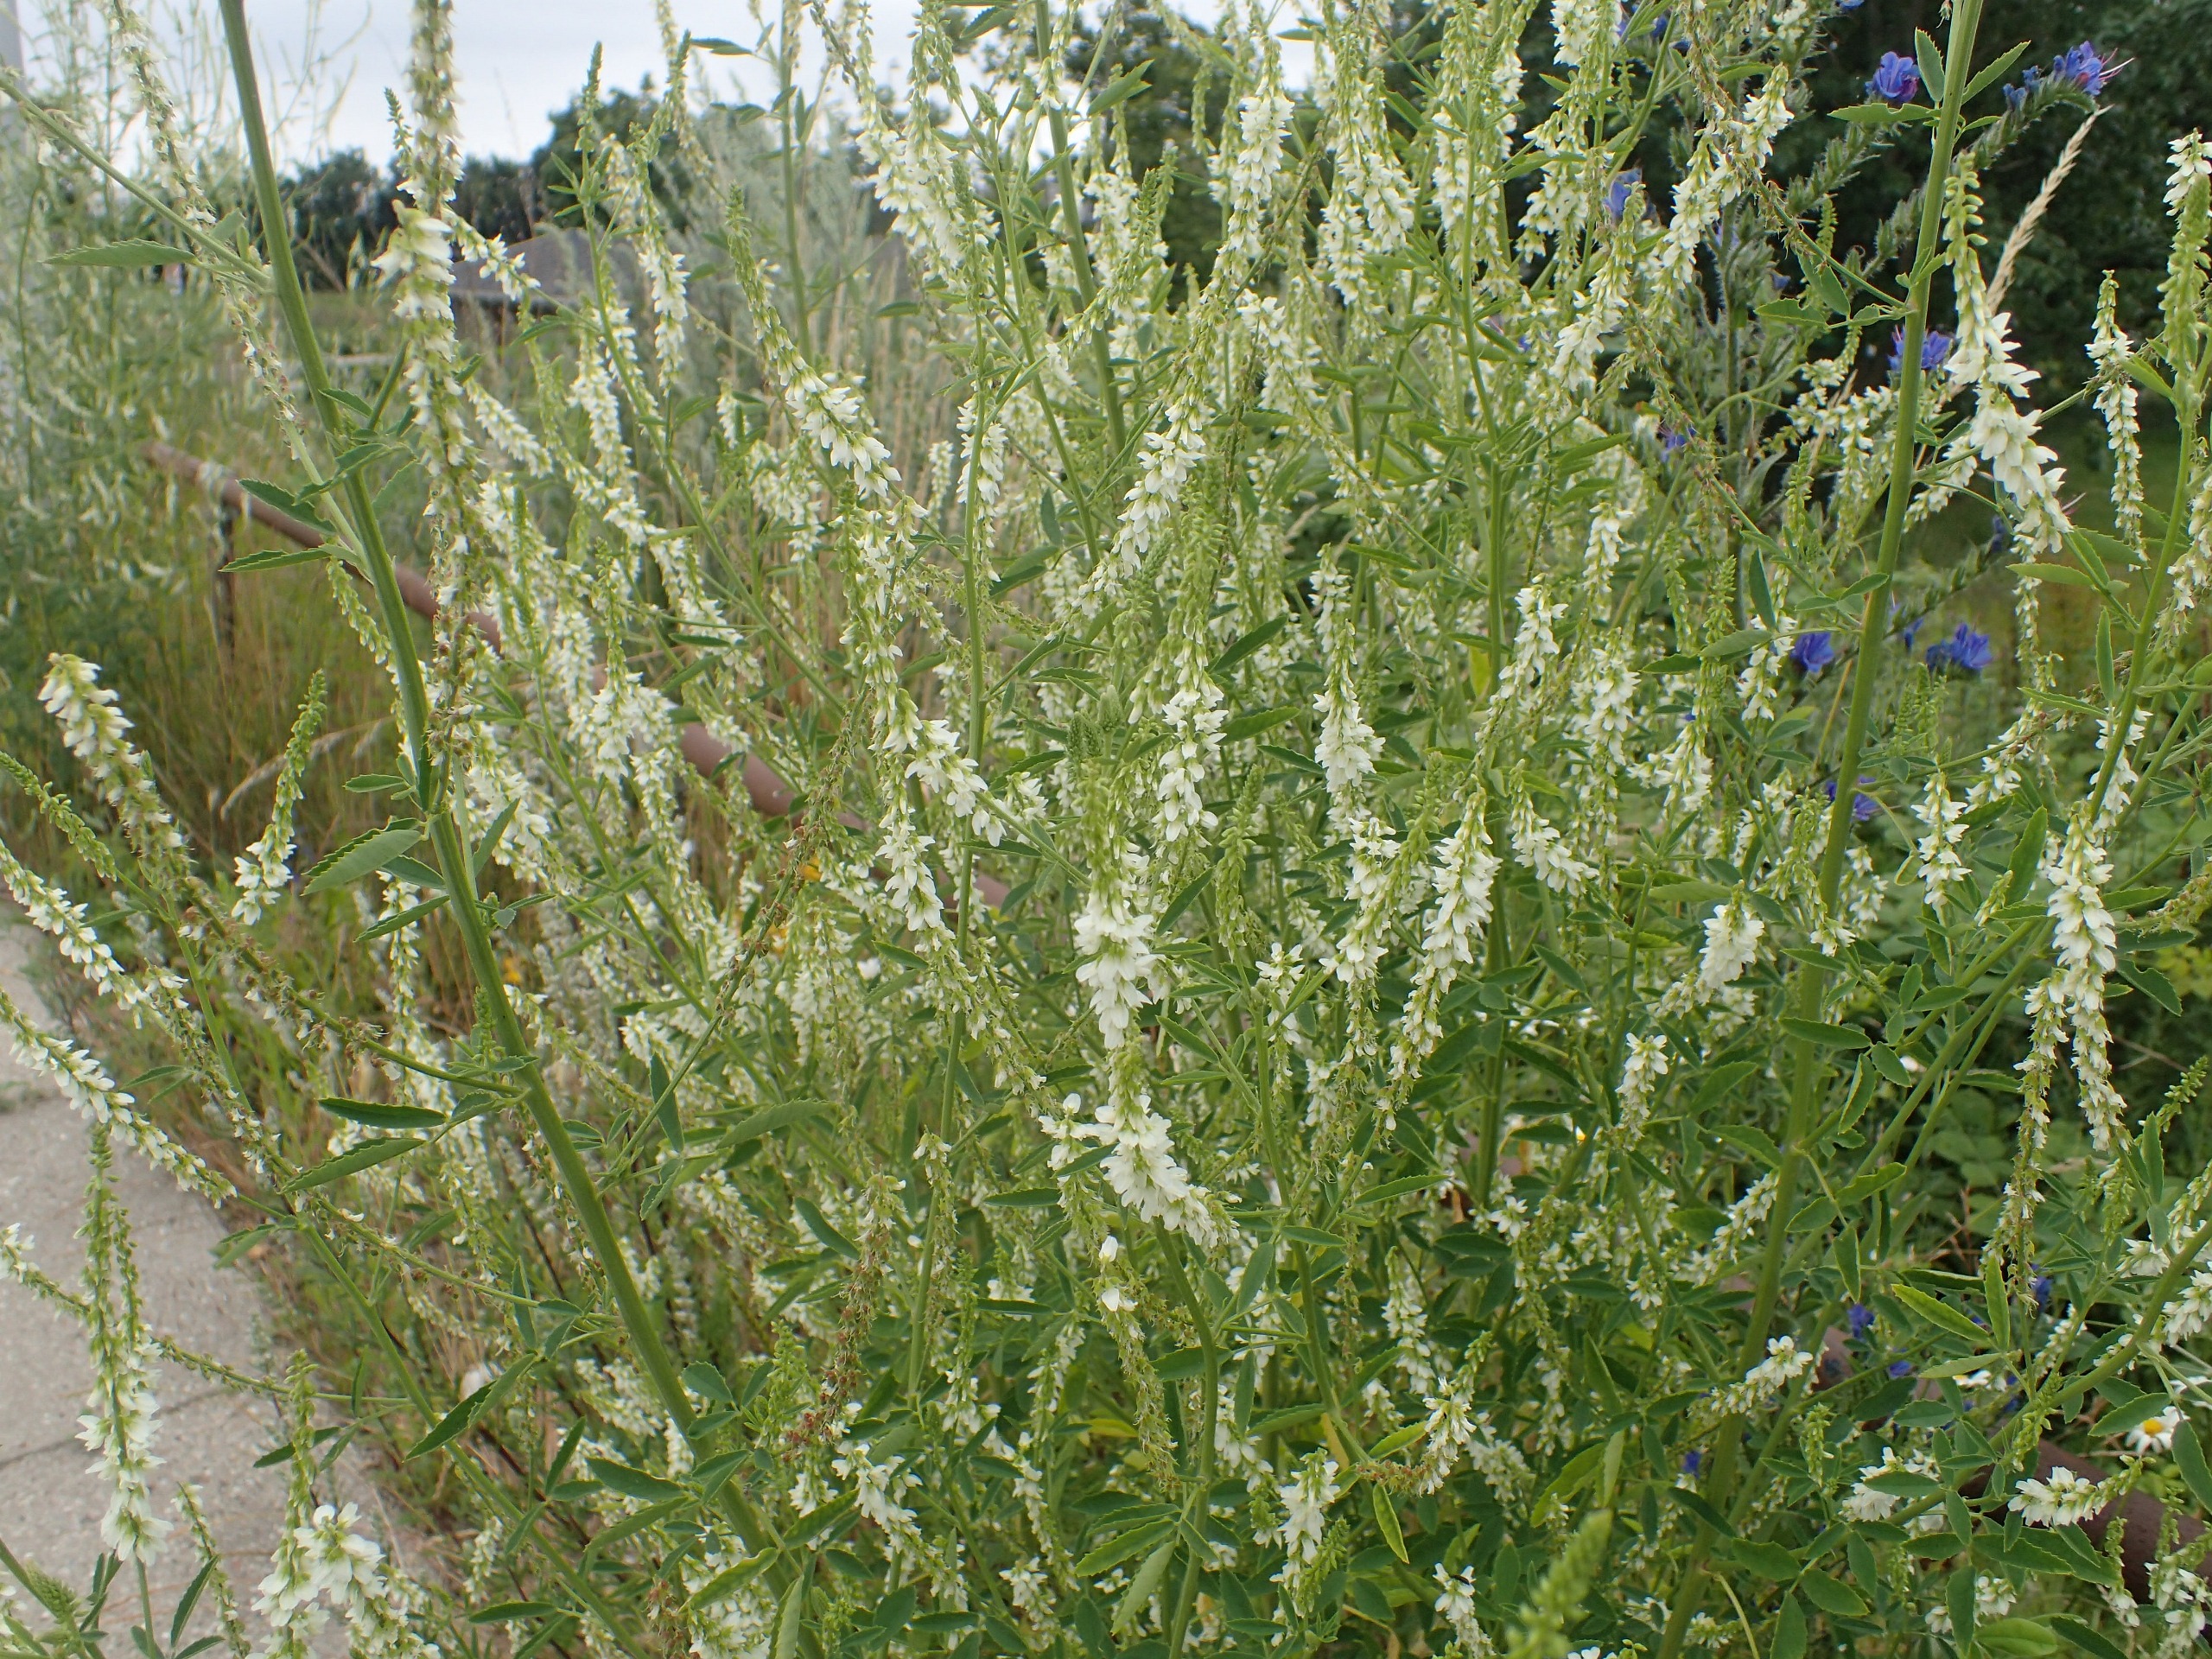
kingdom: Plantae
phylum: Tracheophyta
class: Magnoliopsida
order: Fabales
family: Fabaceae
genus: Melilotus
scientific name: Melilotus albus
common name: Hvid stenkløver
